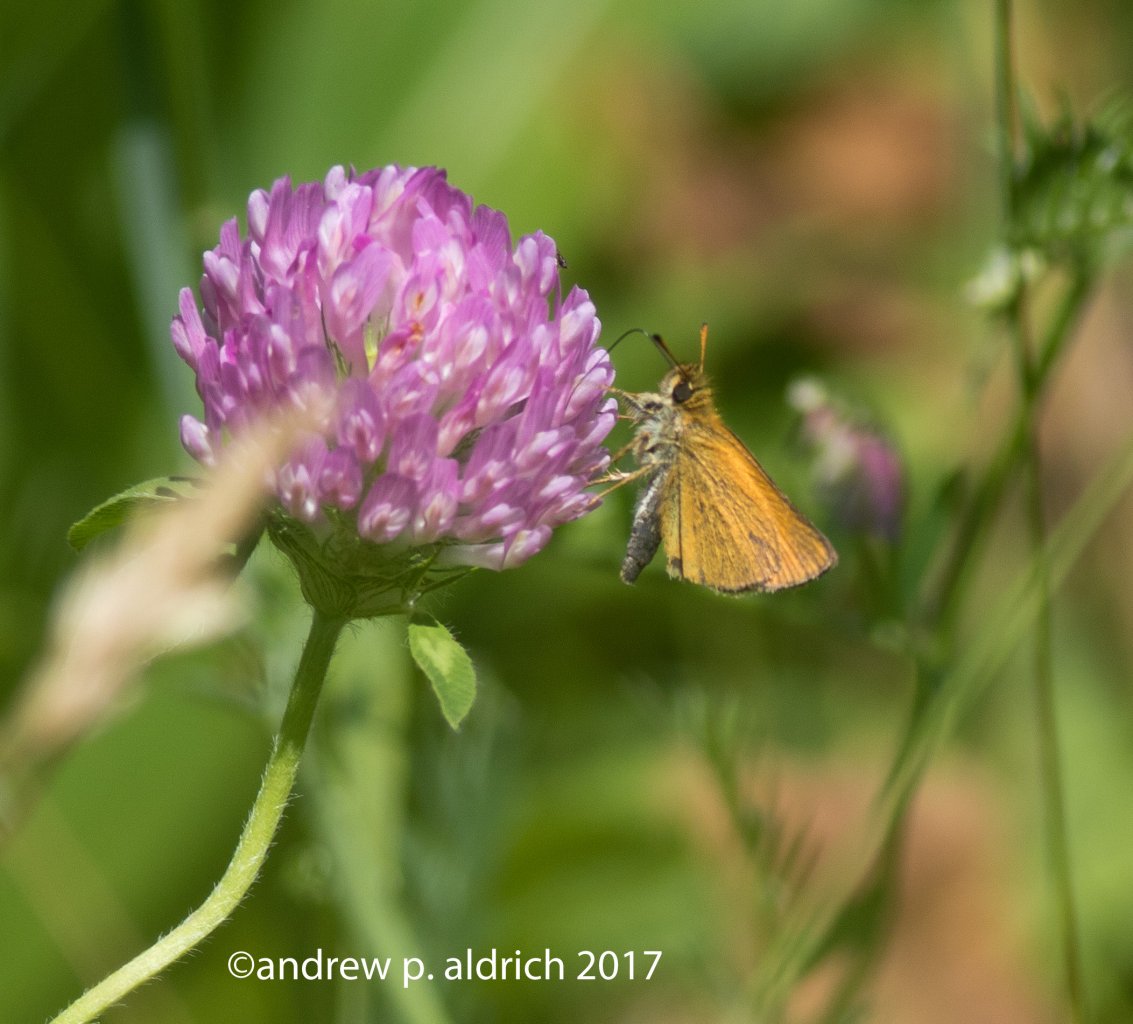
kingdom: Animalia
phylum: Arthropoda
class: Insecta
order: Lepidoptera
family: Hesperiidae
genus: Thymelicus
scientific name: Thymelicus lineola
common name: European Skipper
